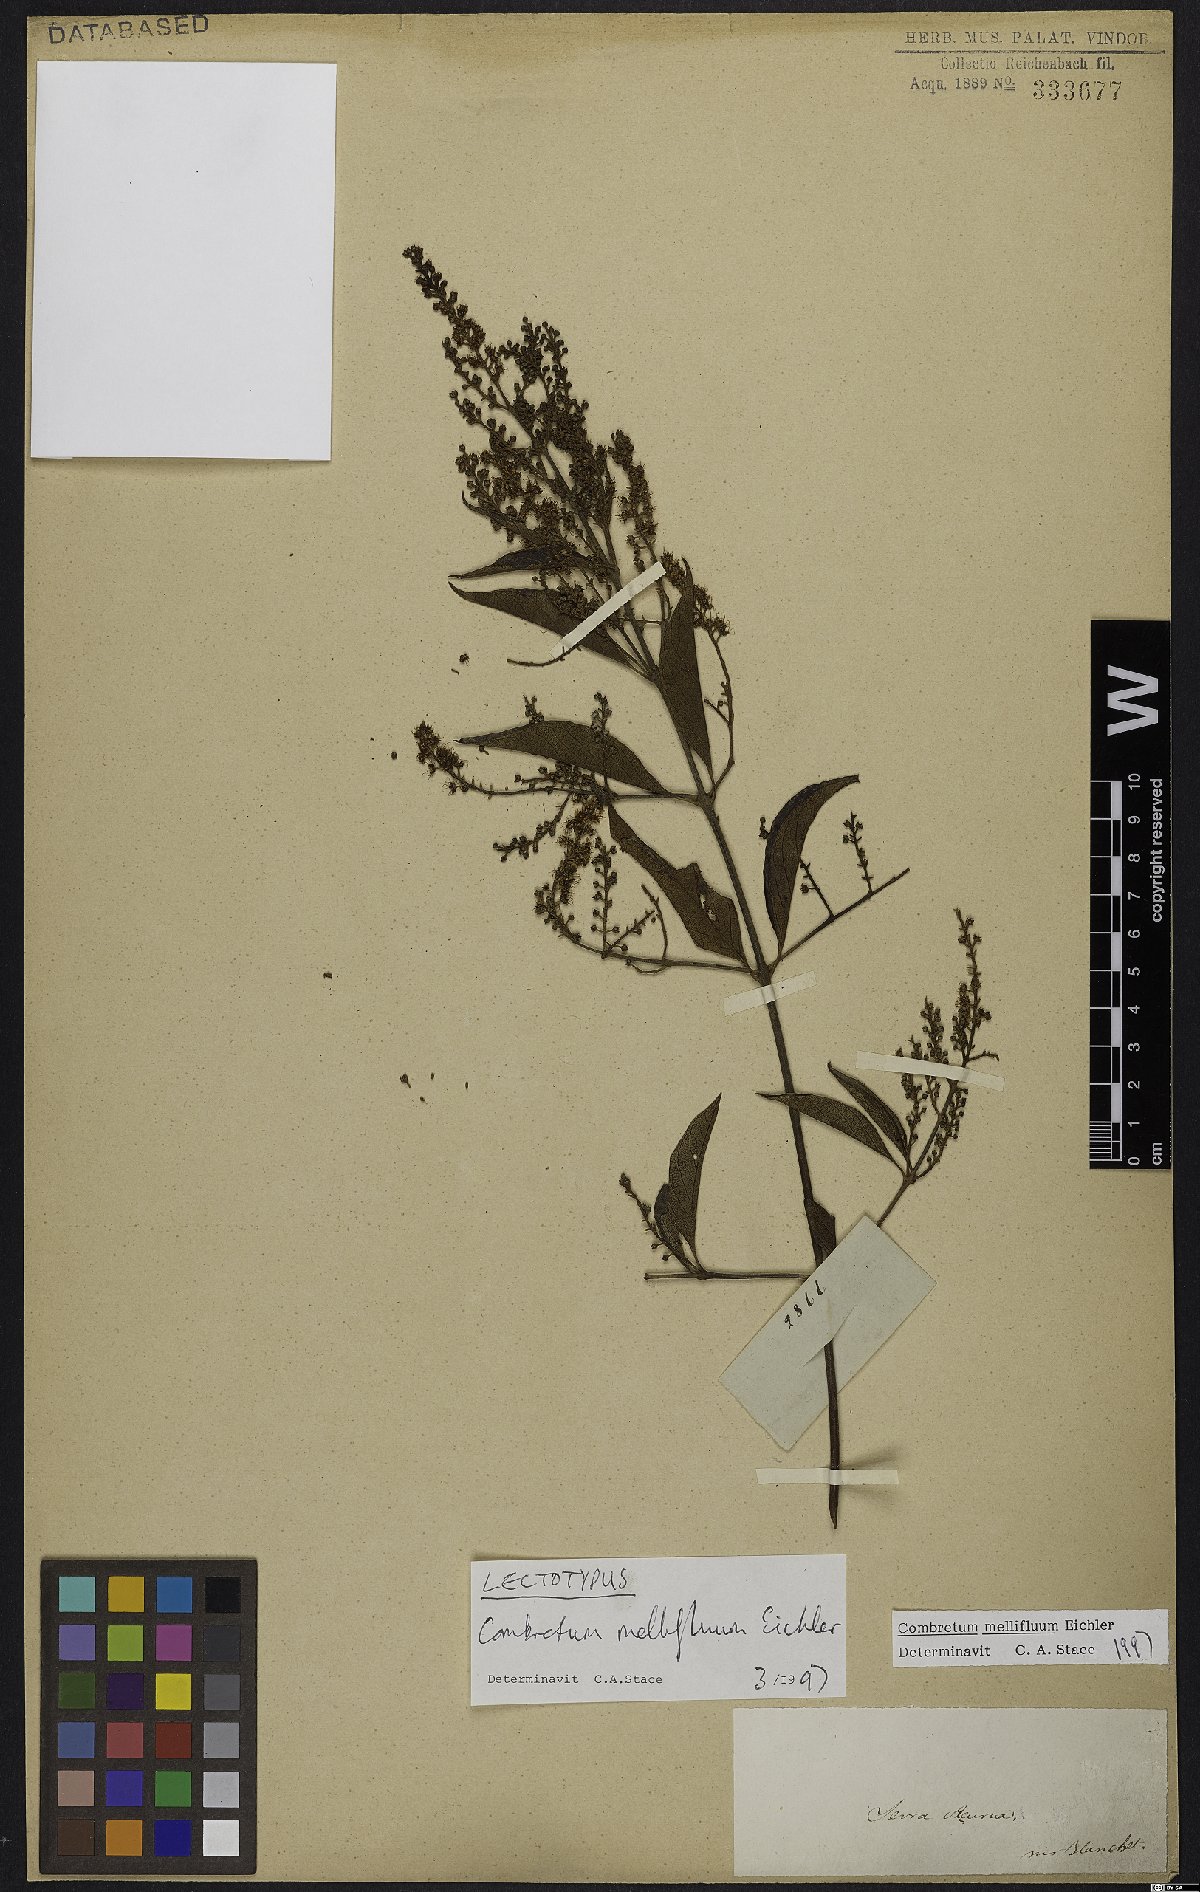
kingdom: Plantae
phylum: Tracheophyta
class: Magnoliopsida
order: Myrtales
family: Combretaceae
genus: Combretum
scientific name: Combretum mellifluum
